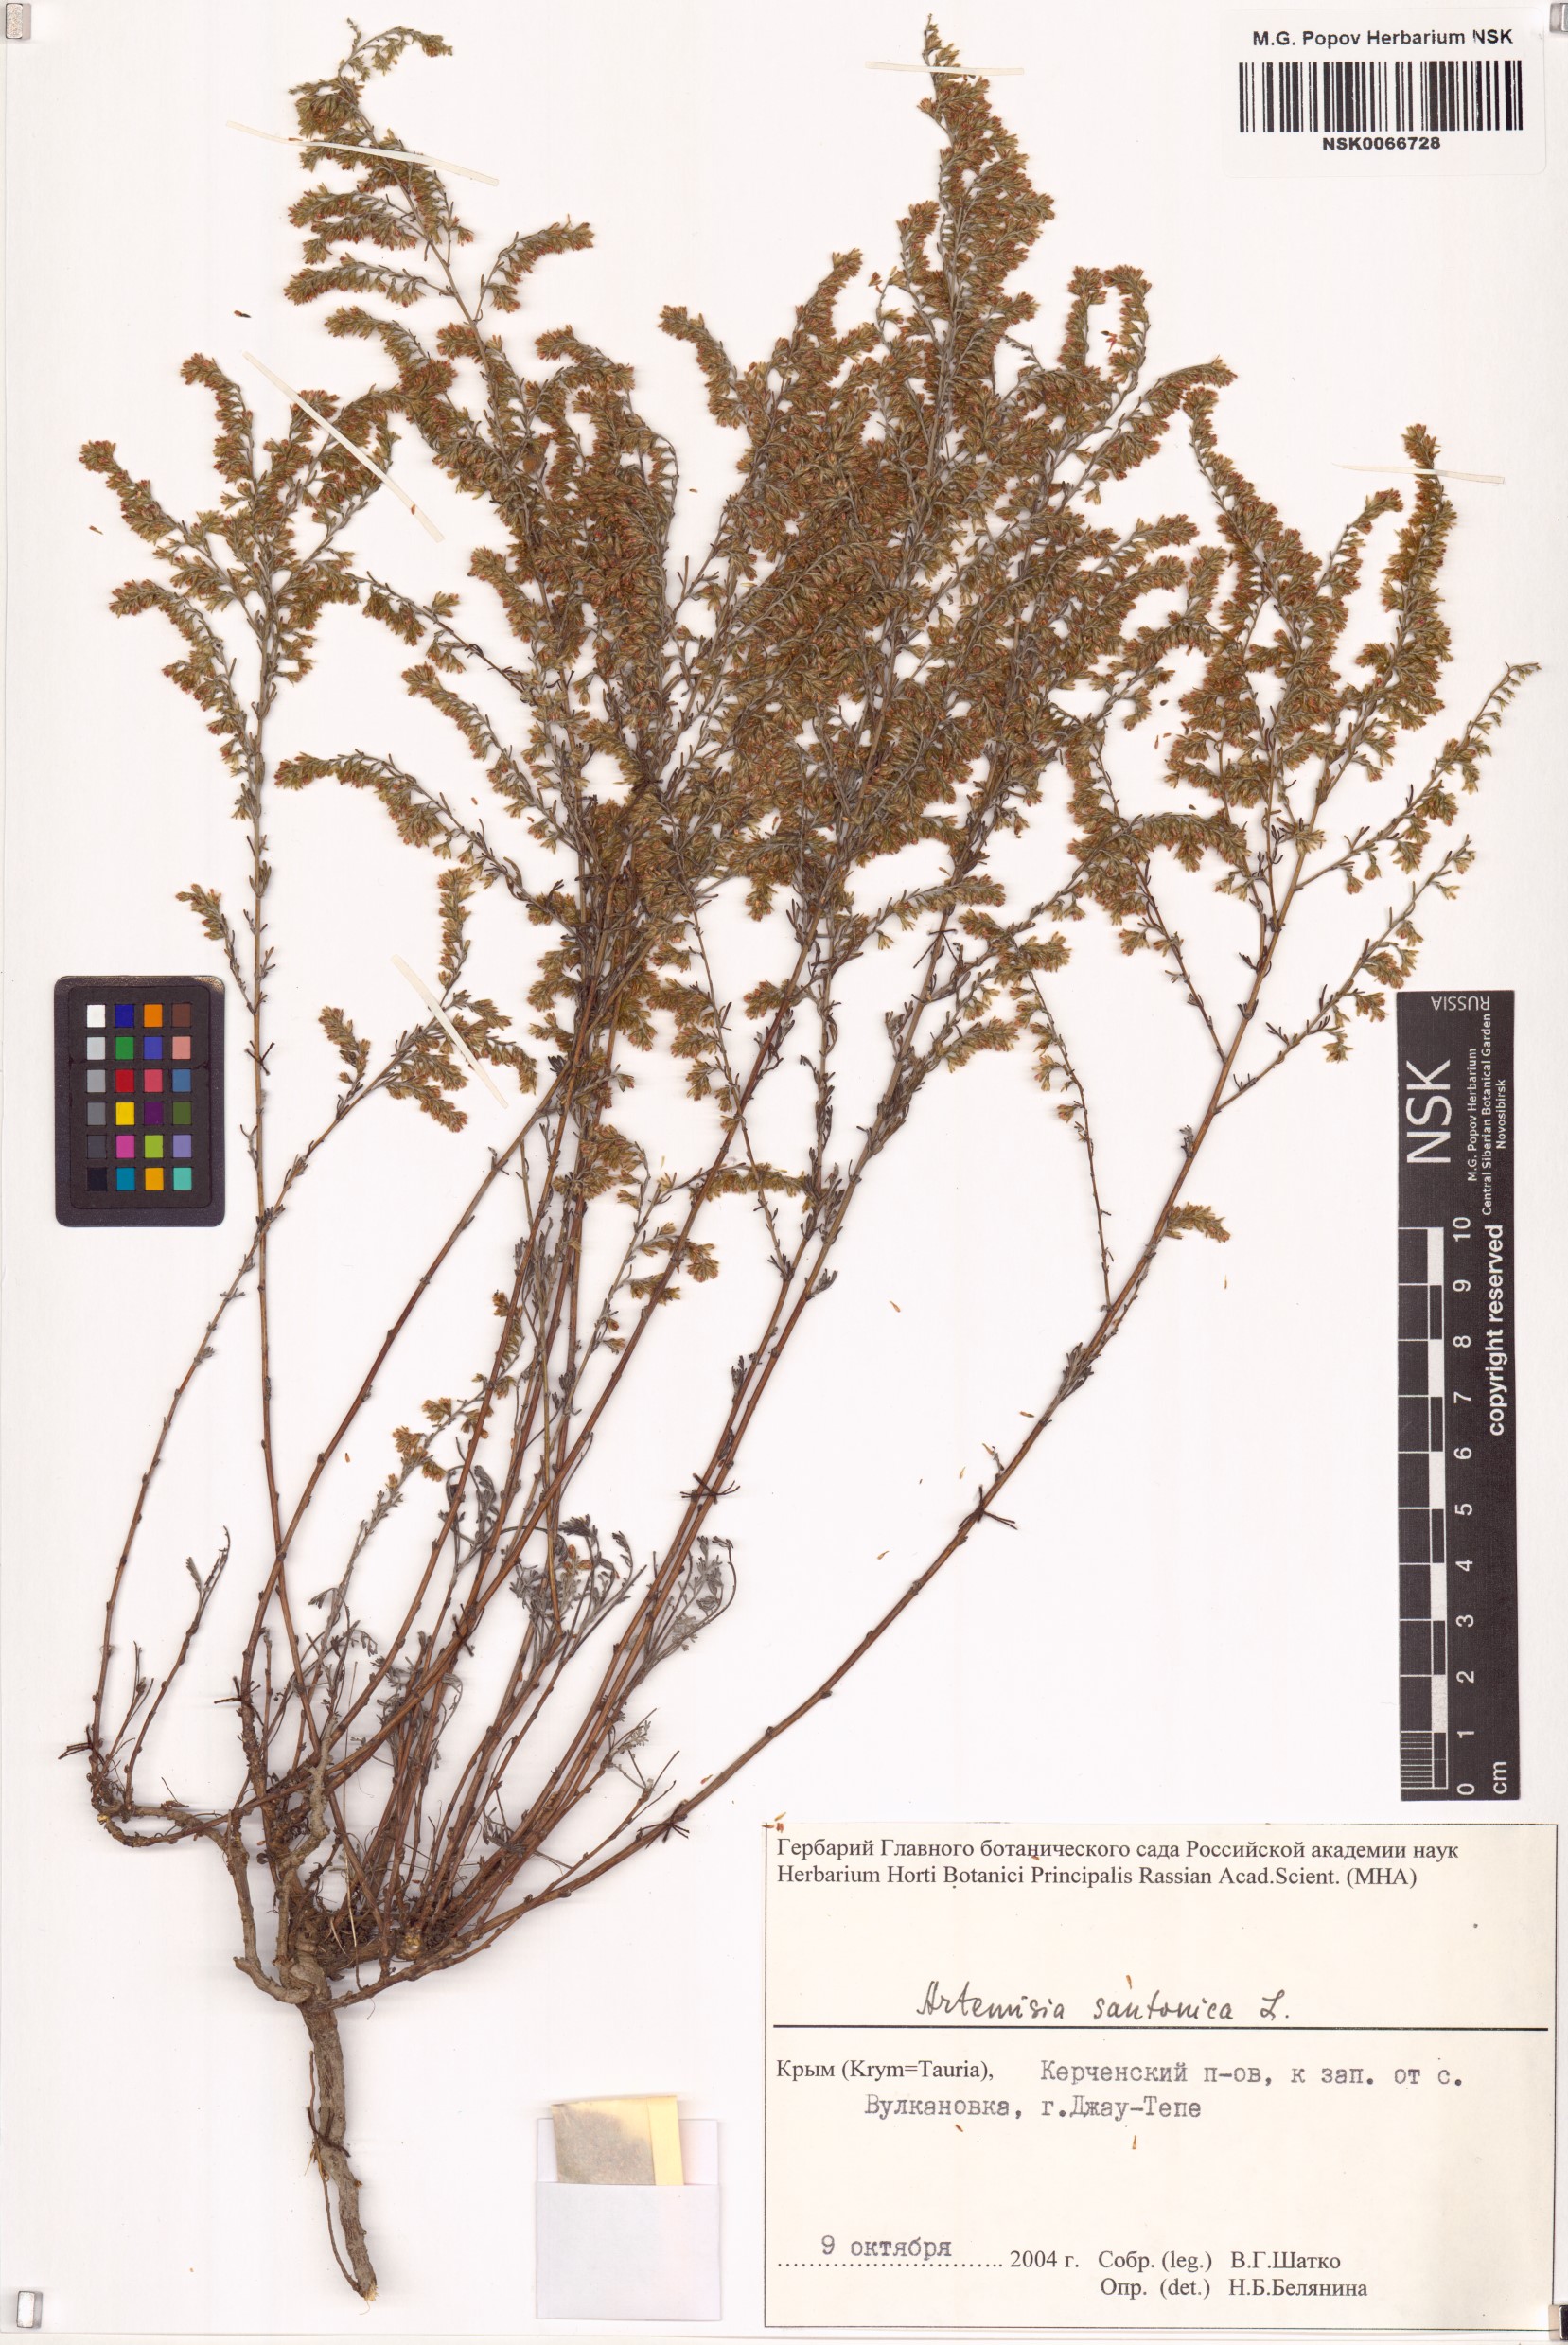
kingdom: Plantae
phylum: Tracheophyta
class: Magnoliopsida
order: Asterales
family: Asteraceae
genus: Artemisia
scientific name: Artemisia santonicum
